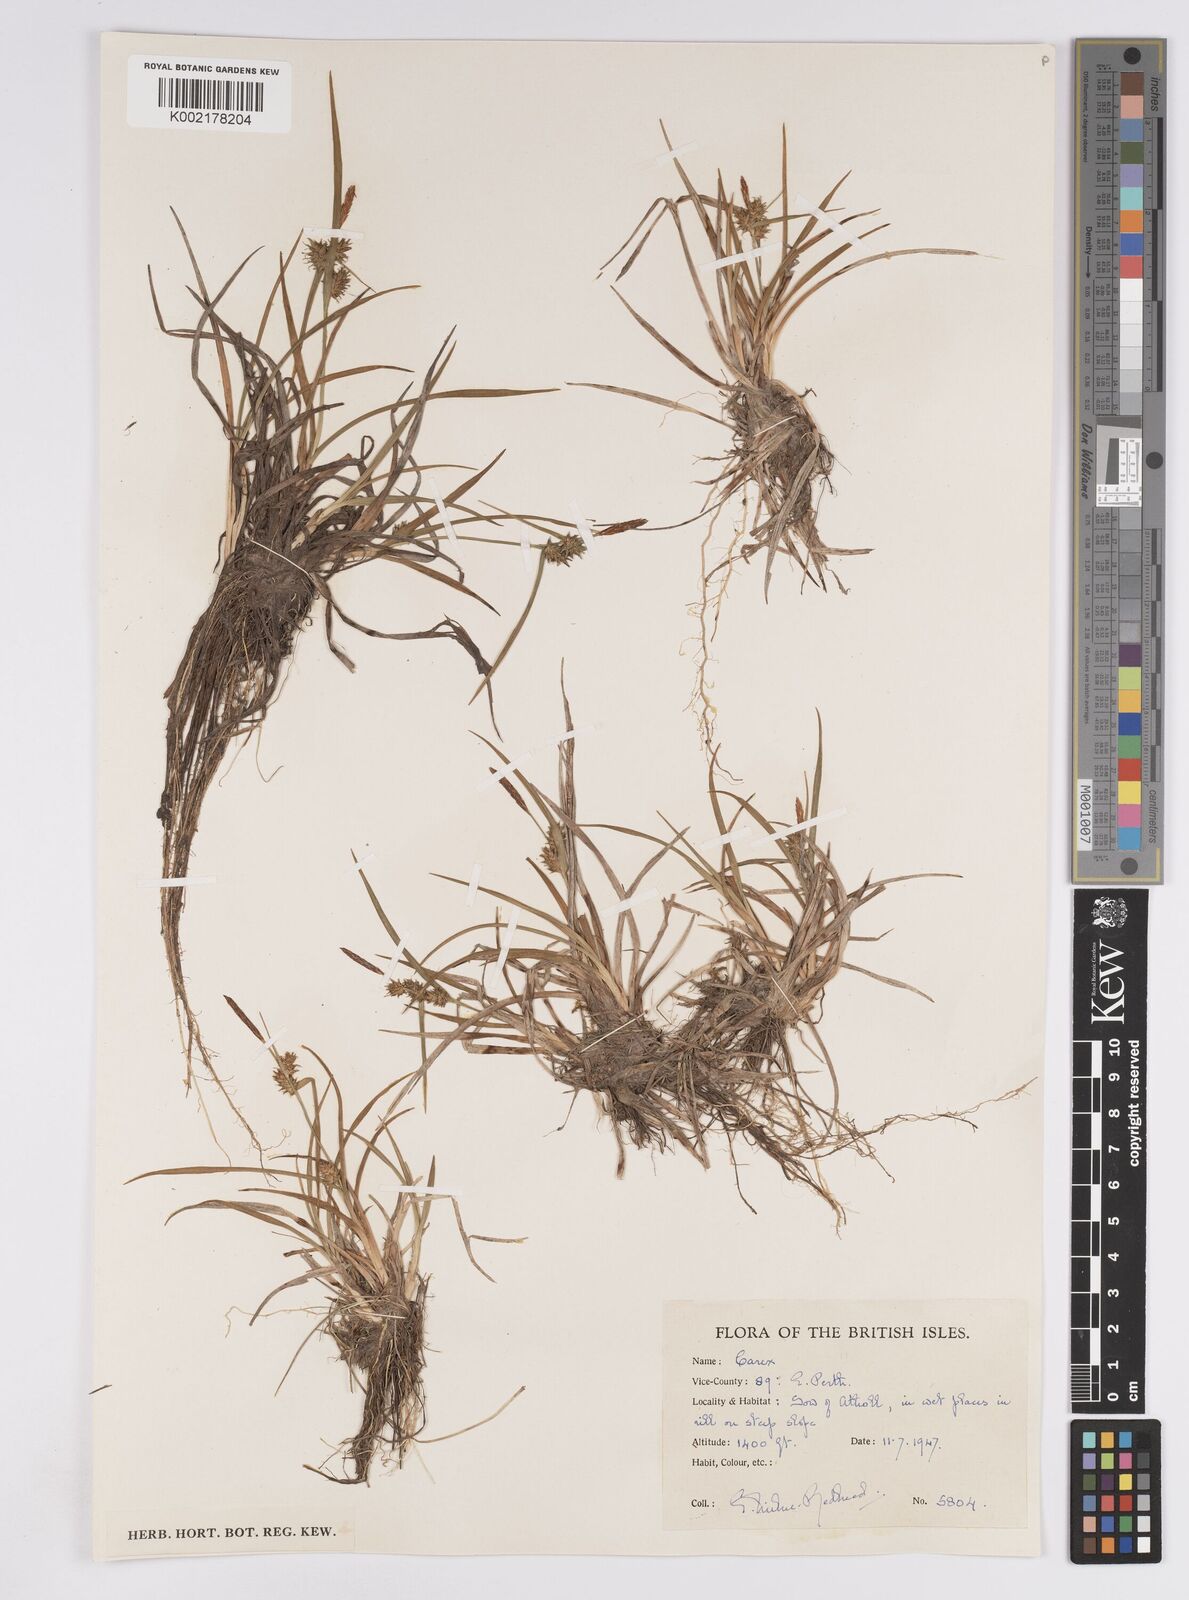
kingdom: Plantae
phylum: Tracheophyta
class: Liliopsida
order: Poales
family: Cyperaceae
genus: Carex
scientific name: Carex demissa
